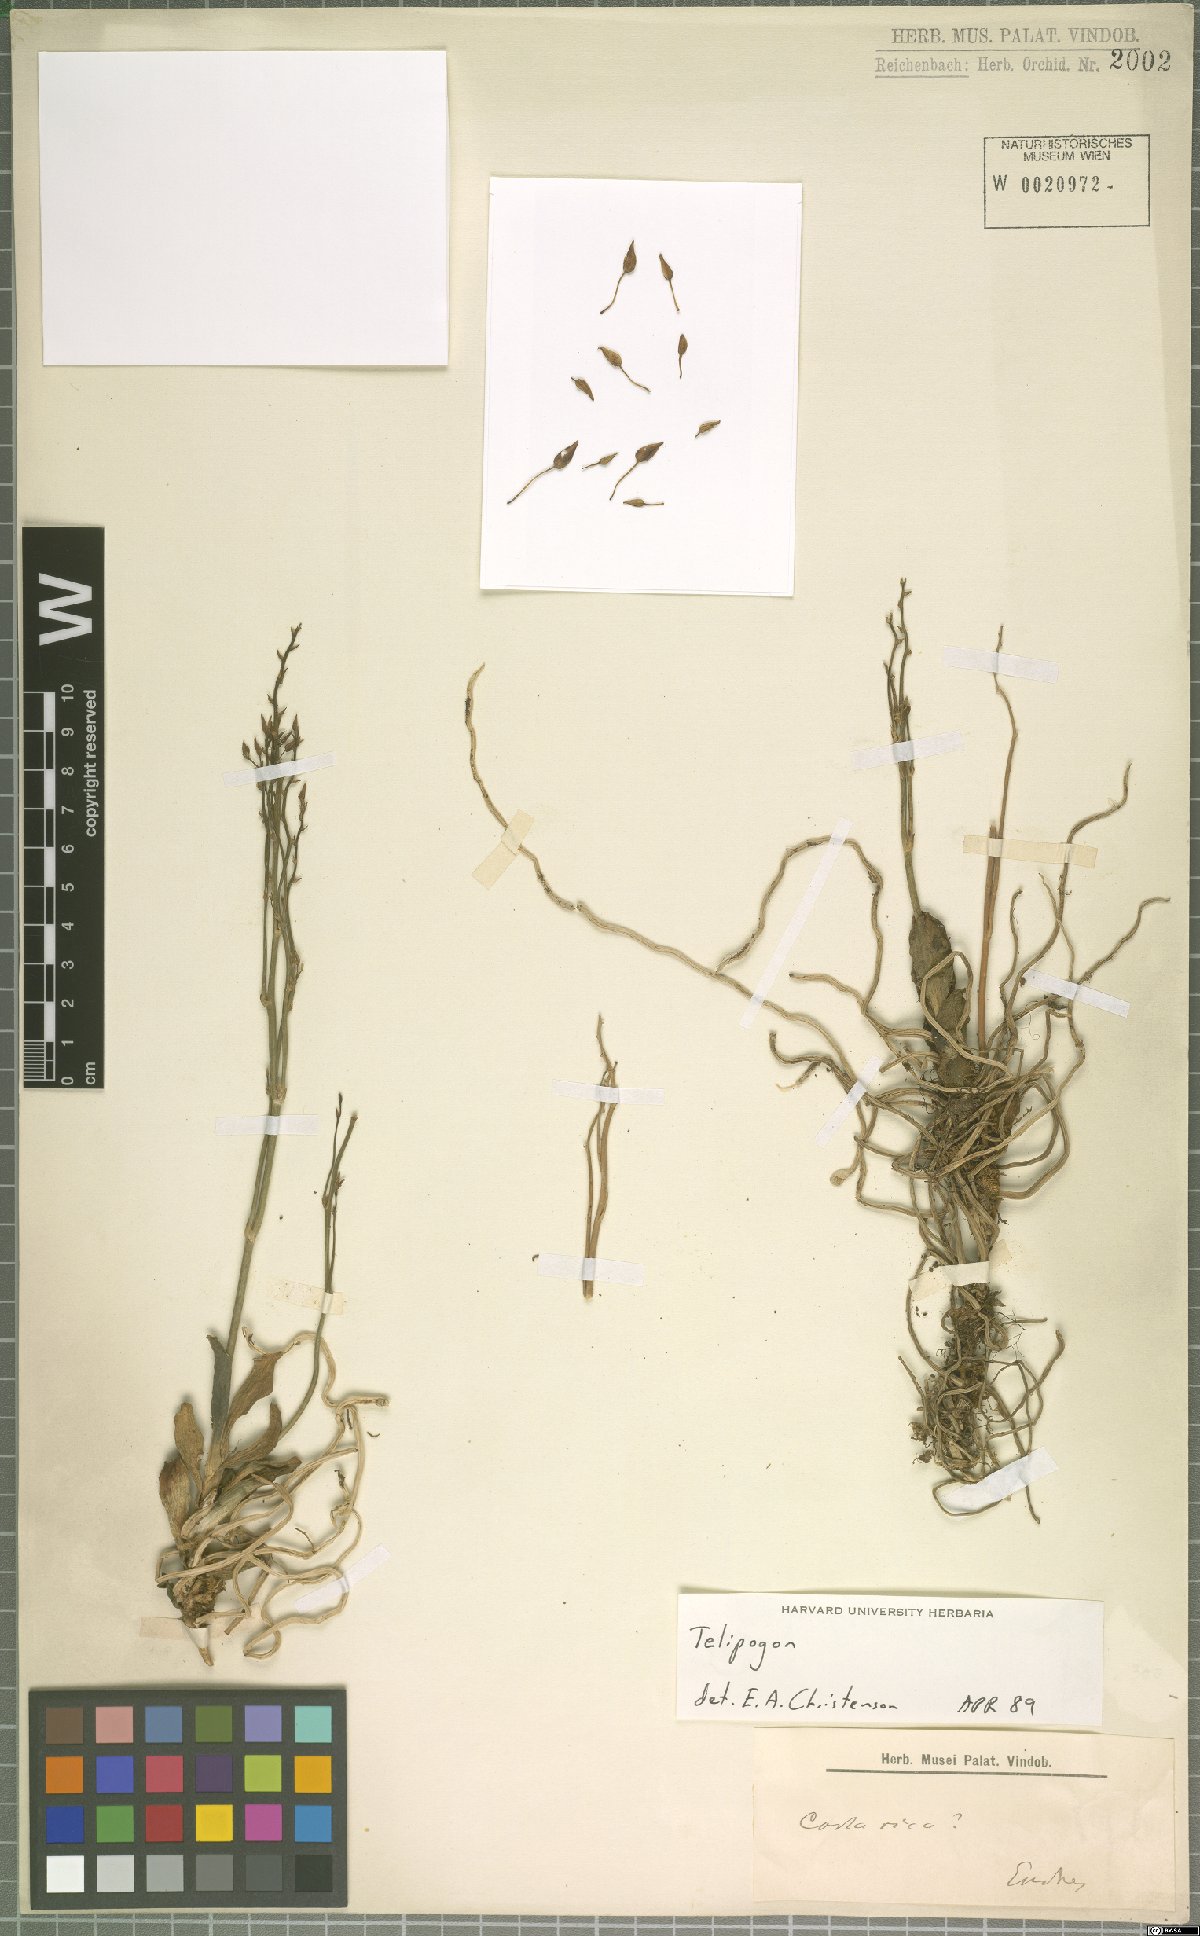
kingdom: Plantae
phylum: Tracheophyta
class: Liliopsida
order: Asparagales
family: Orchidaceae
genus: Telipogon
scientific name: Telipogon
